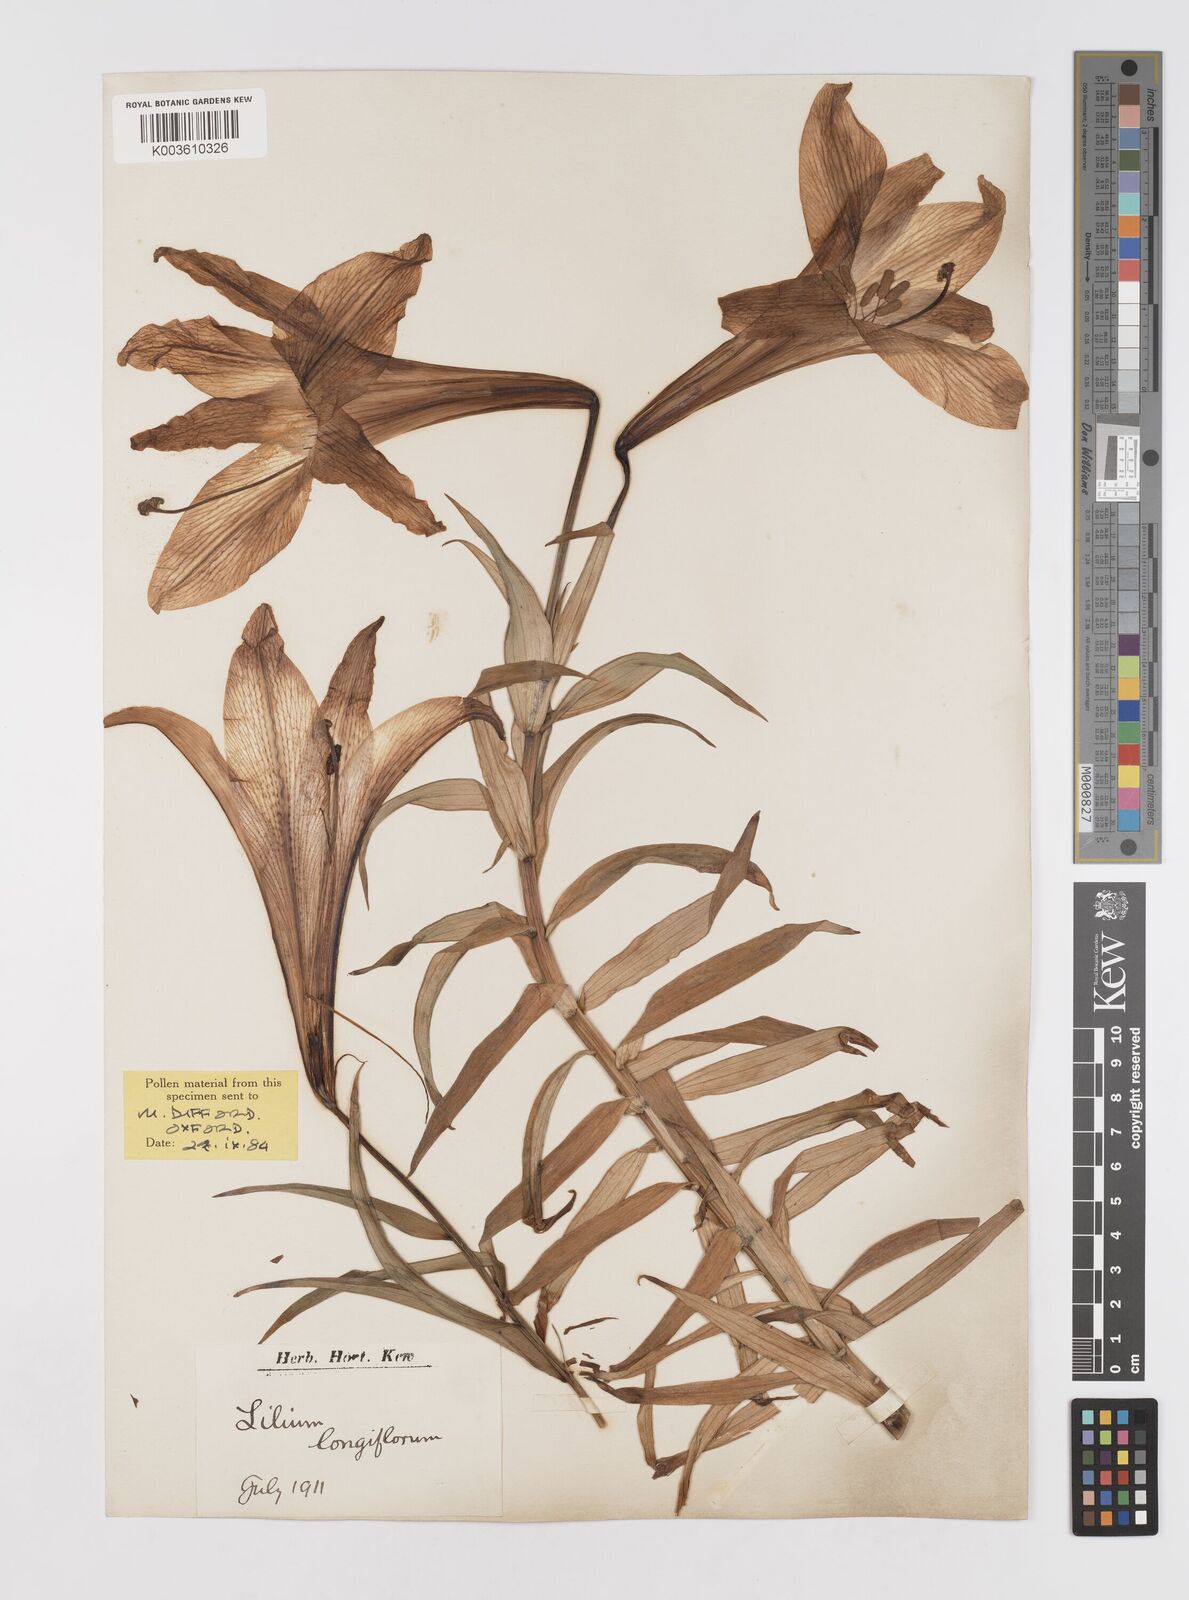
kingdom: Plantae
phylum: Tracheophyta
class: Liliopsida
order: Liliales
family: Liliaceae
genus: Lilium
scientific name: Lilium wallichianum
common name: Wallich's lily
